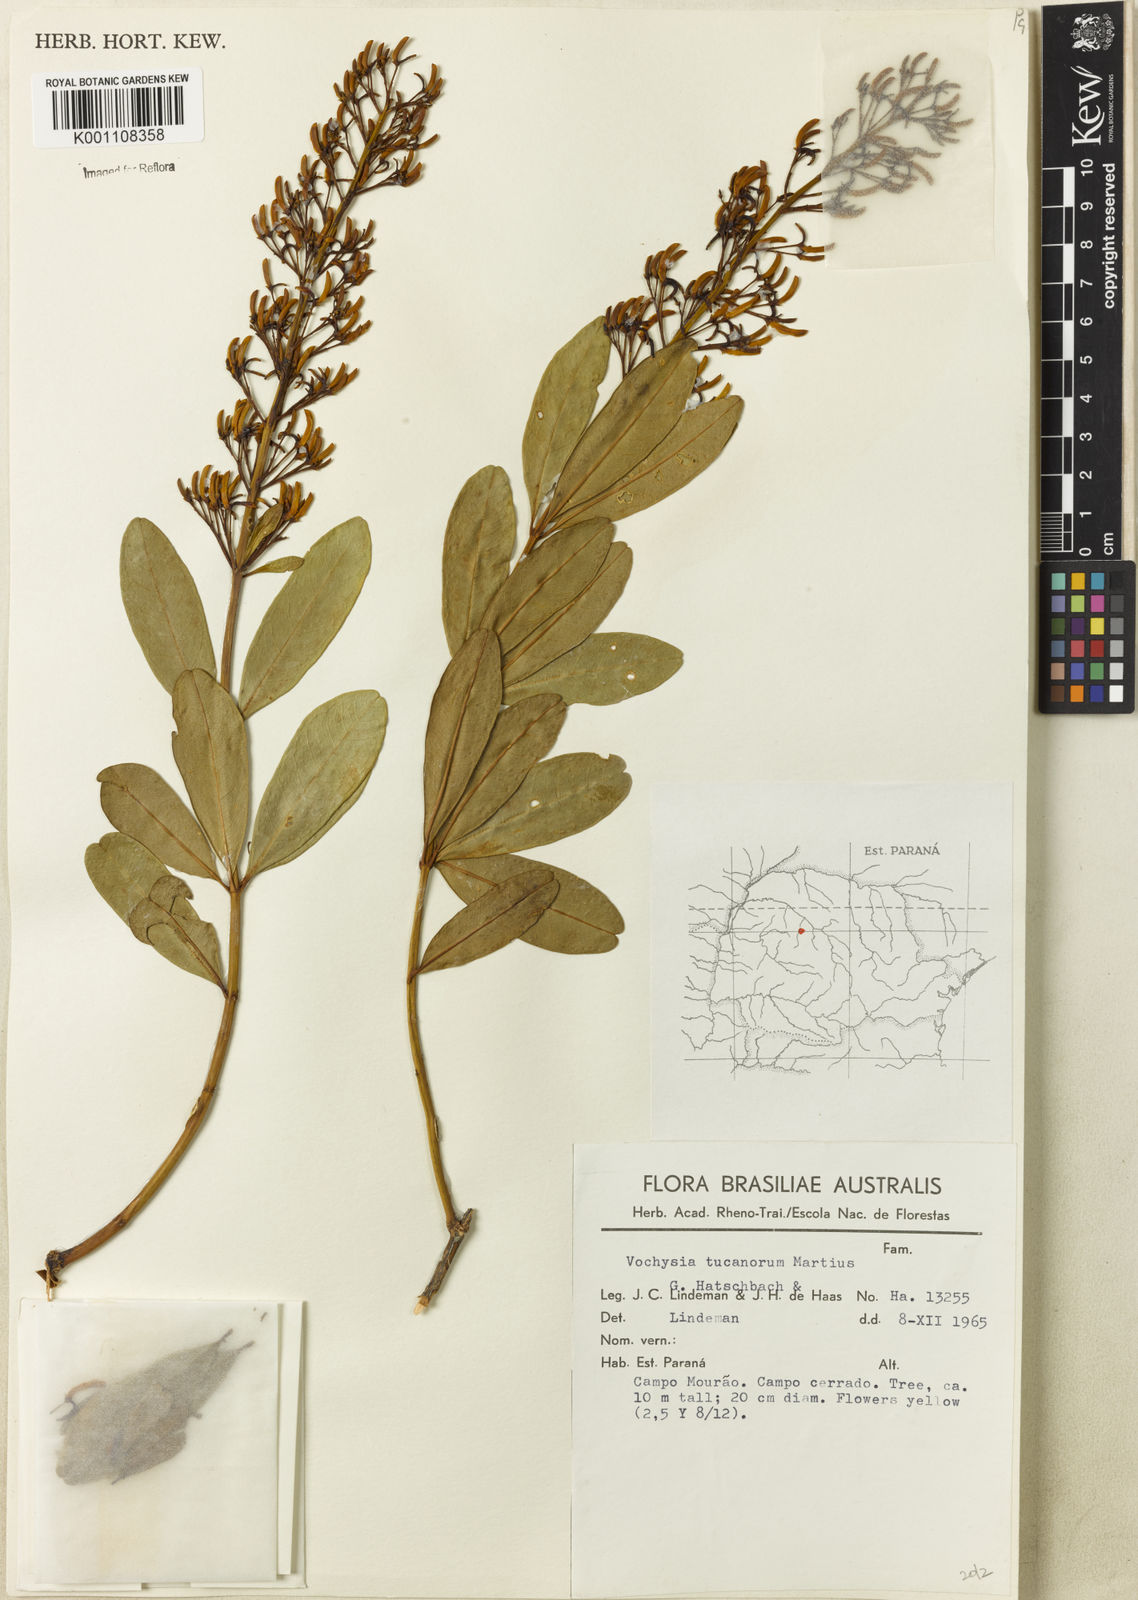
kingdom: Plantae
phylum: Tracheophyta
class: Magnoliopsida
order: Myrtales
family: Vochysiaceae
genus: Vochysia
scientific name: Vochysia tucanorum
